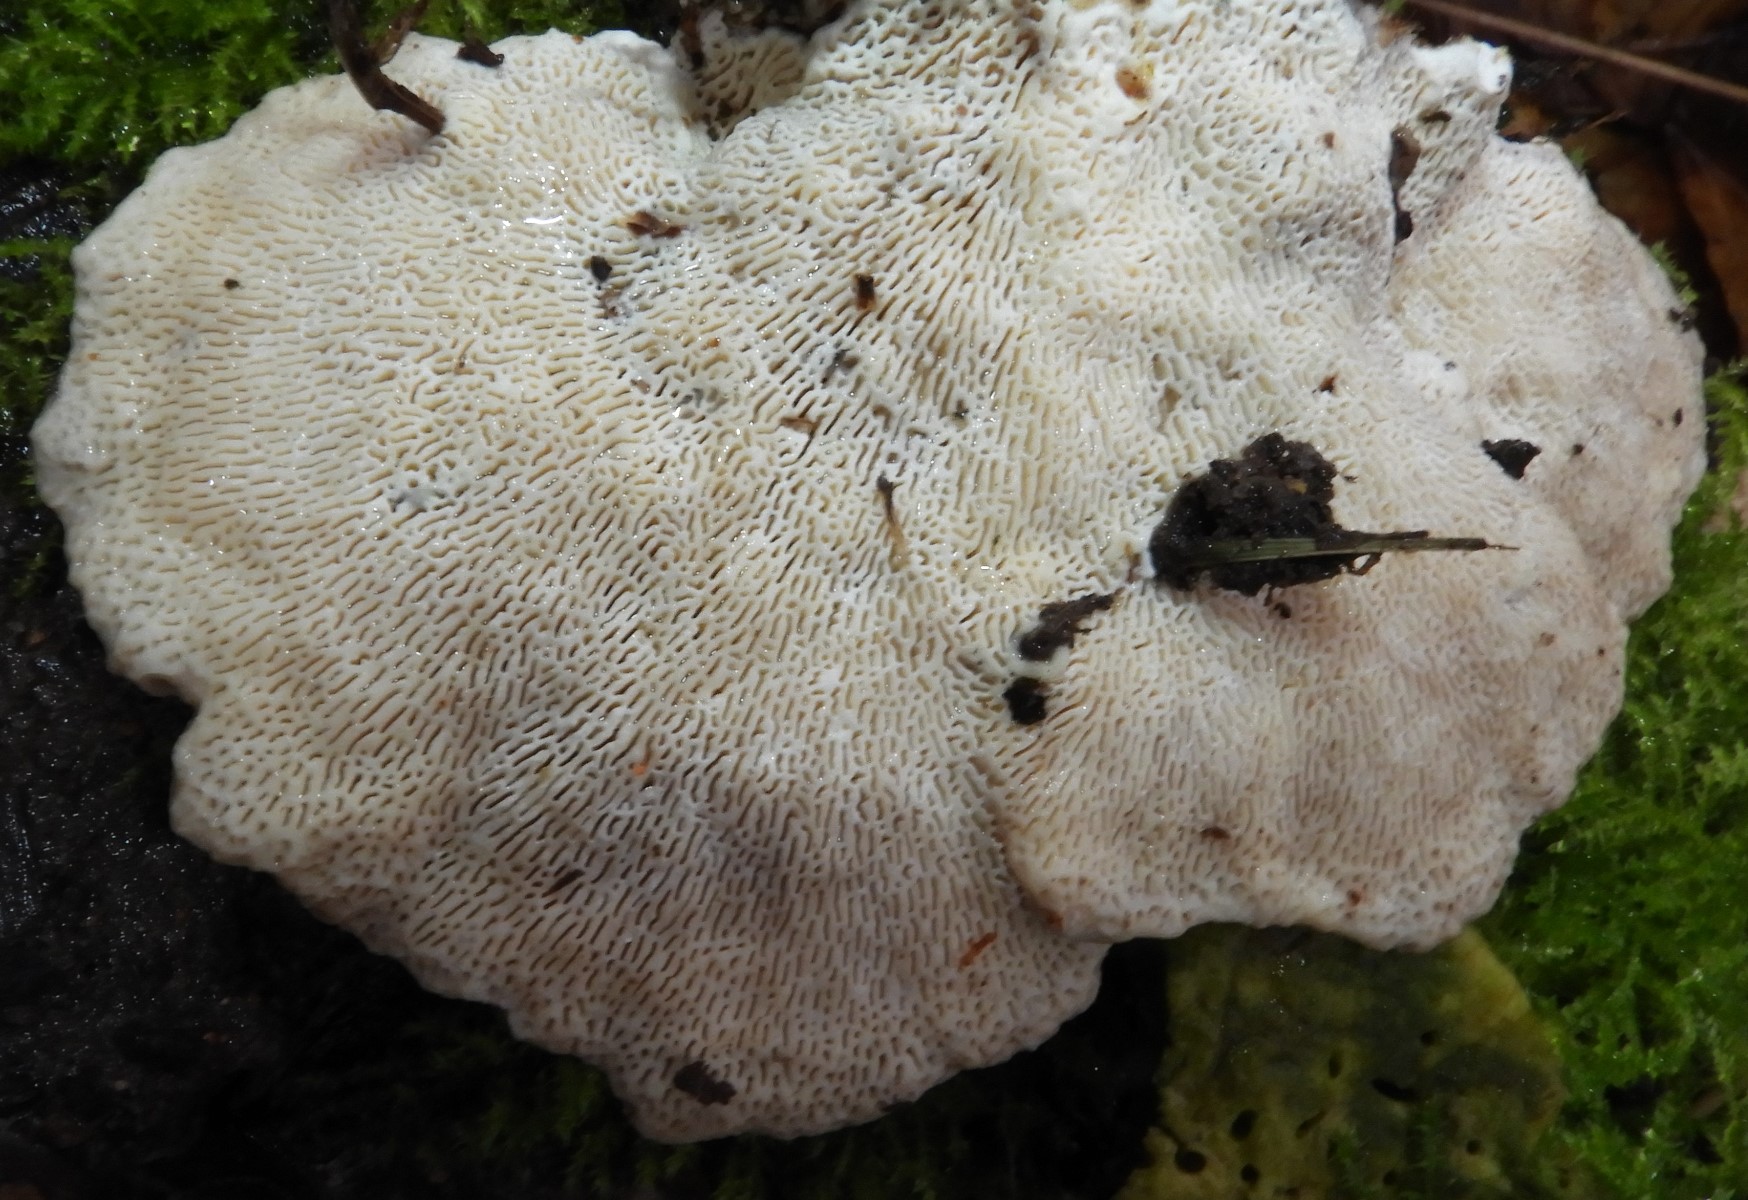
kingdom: Fungi
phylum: Basidiomycota
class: Agaricomycetes
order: Polyporales
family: Polyporaceae
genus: Trametes
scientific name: Trametes gibbosa
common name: puklet læderporesvamp
